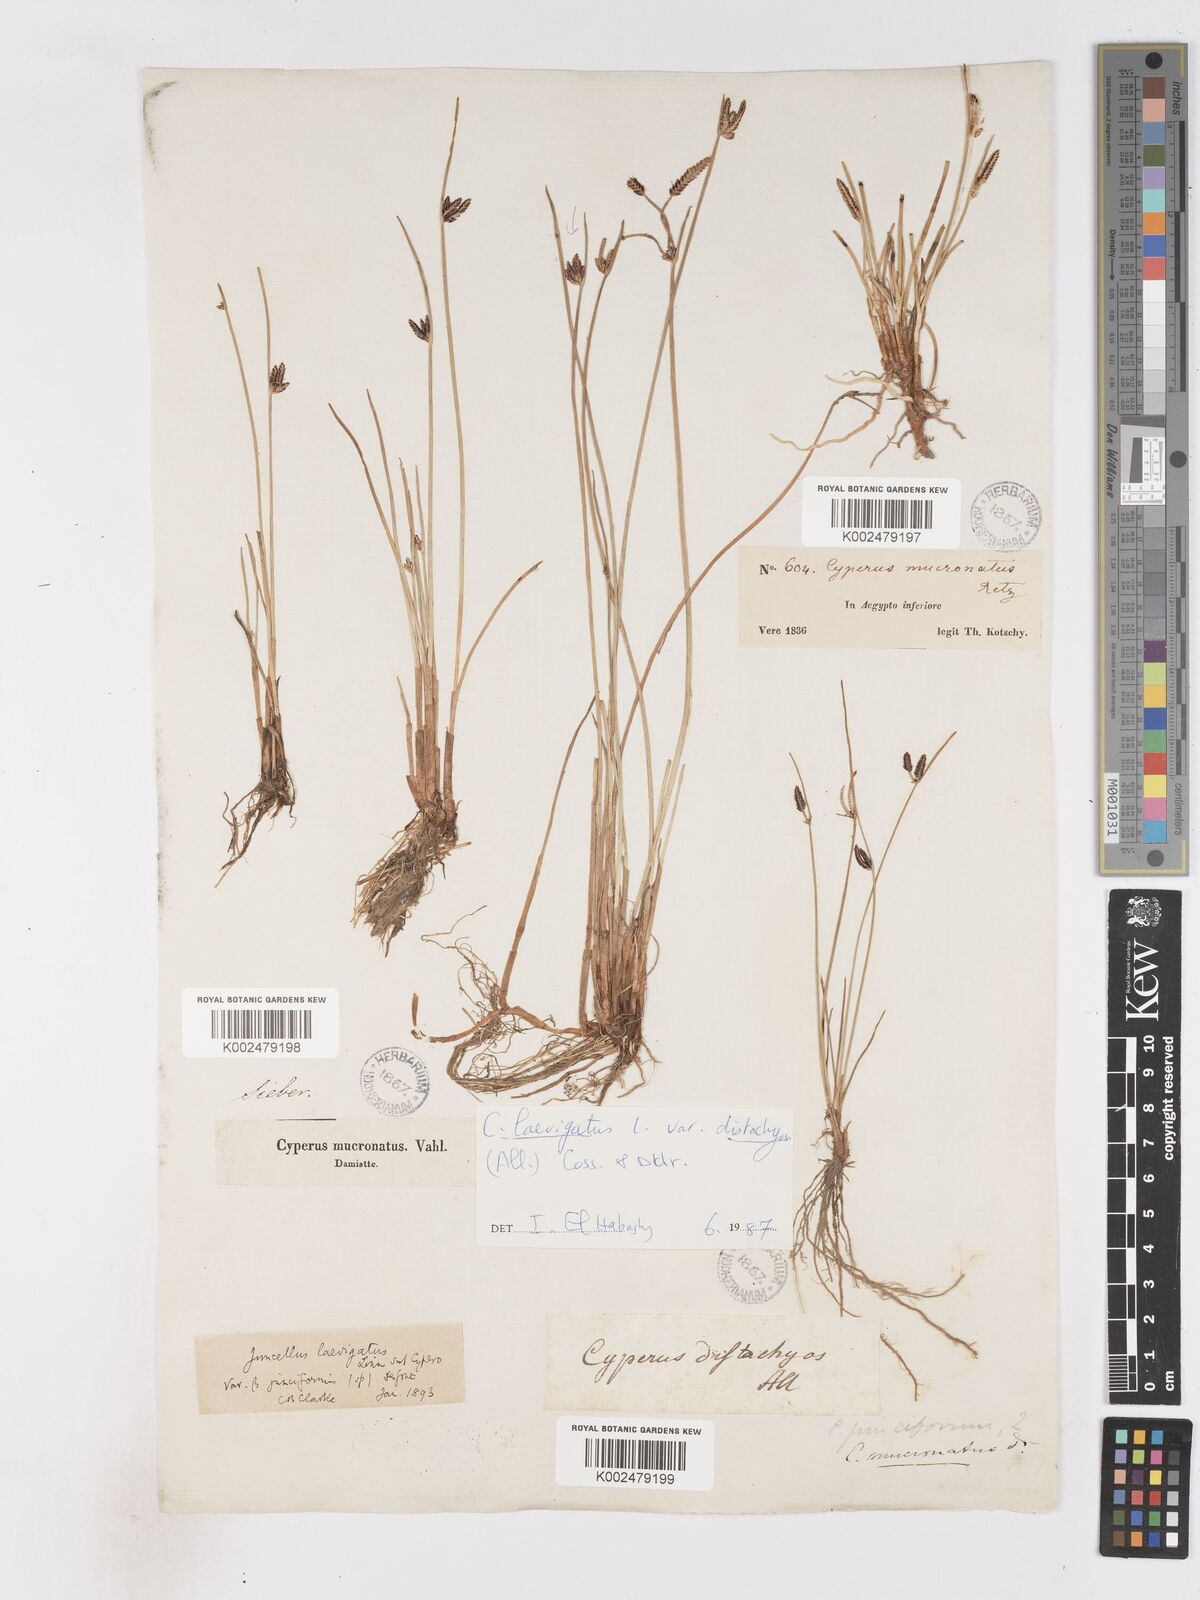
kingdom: Plantae
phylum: Tracheophyta
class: Liliopsida
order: Poales
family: Cyperaceae
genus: Cyperus
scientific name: Cyperus laevigatus
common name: Smooth flat sedge
